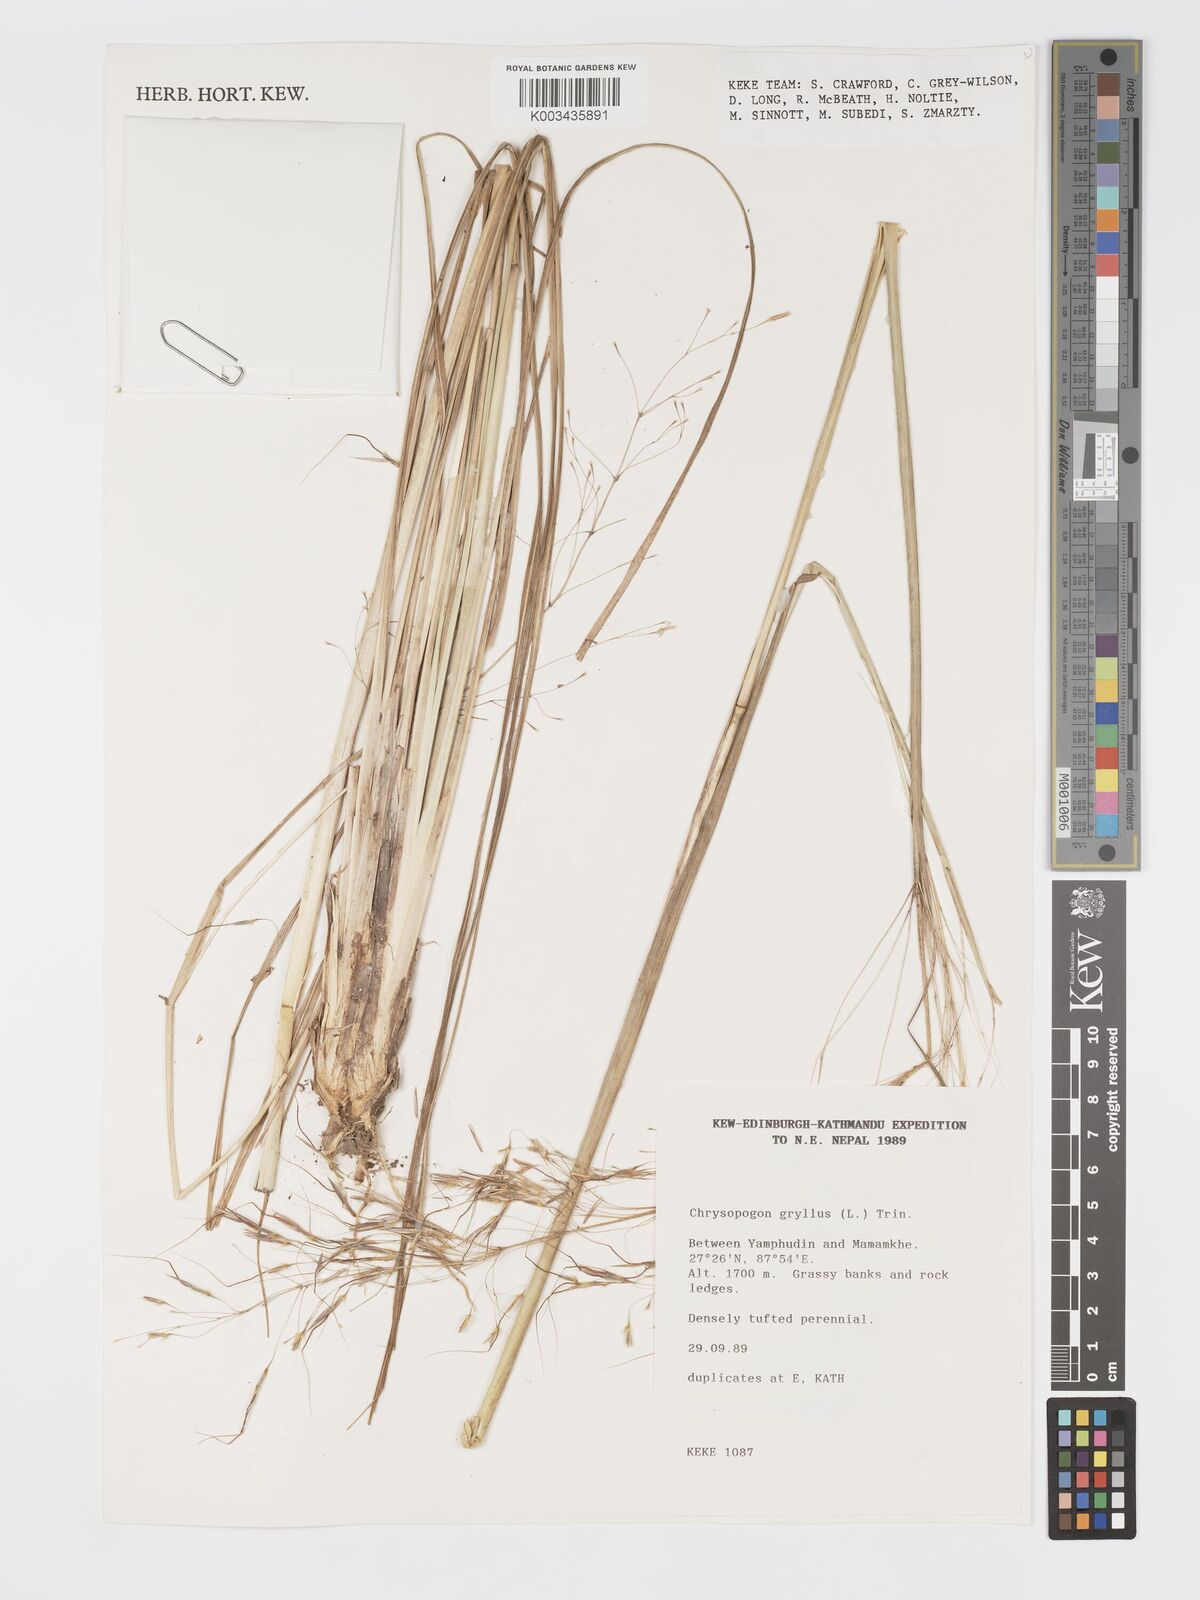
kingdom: Plantae
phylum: Tracheophyta
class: Liliopsida
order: Poales
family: Poaceae
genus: Chrysopogon
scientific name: Chrysopogon gryllus
